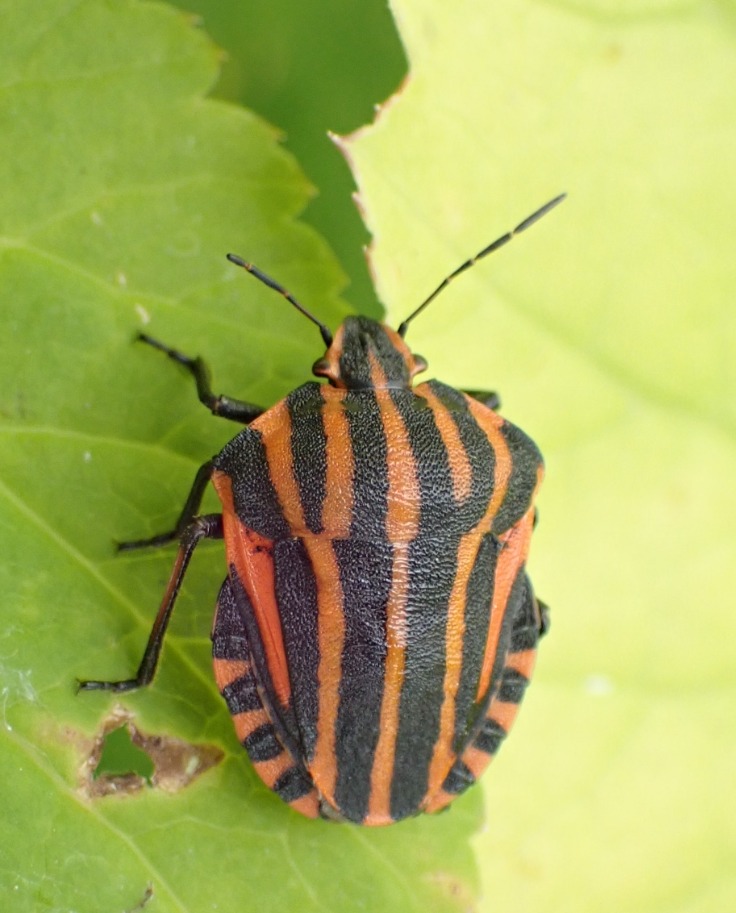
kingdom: Animalia
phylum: Arthropoda
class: Insecta
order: Hemiptera
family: Pentatomidae
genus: Graphosoma
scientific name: Graphosoma italicum
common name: Stribetæge
